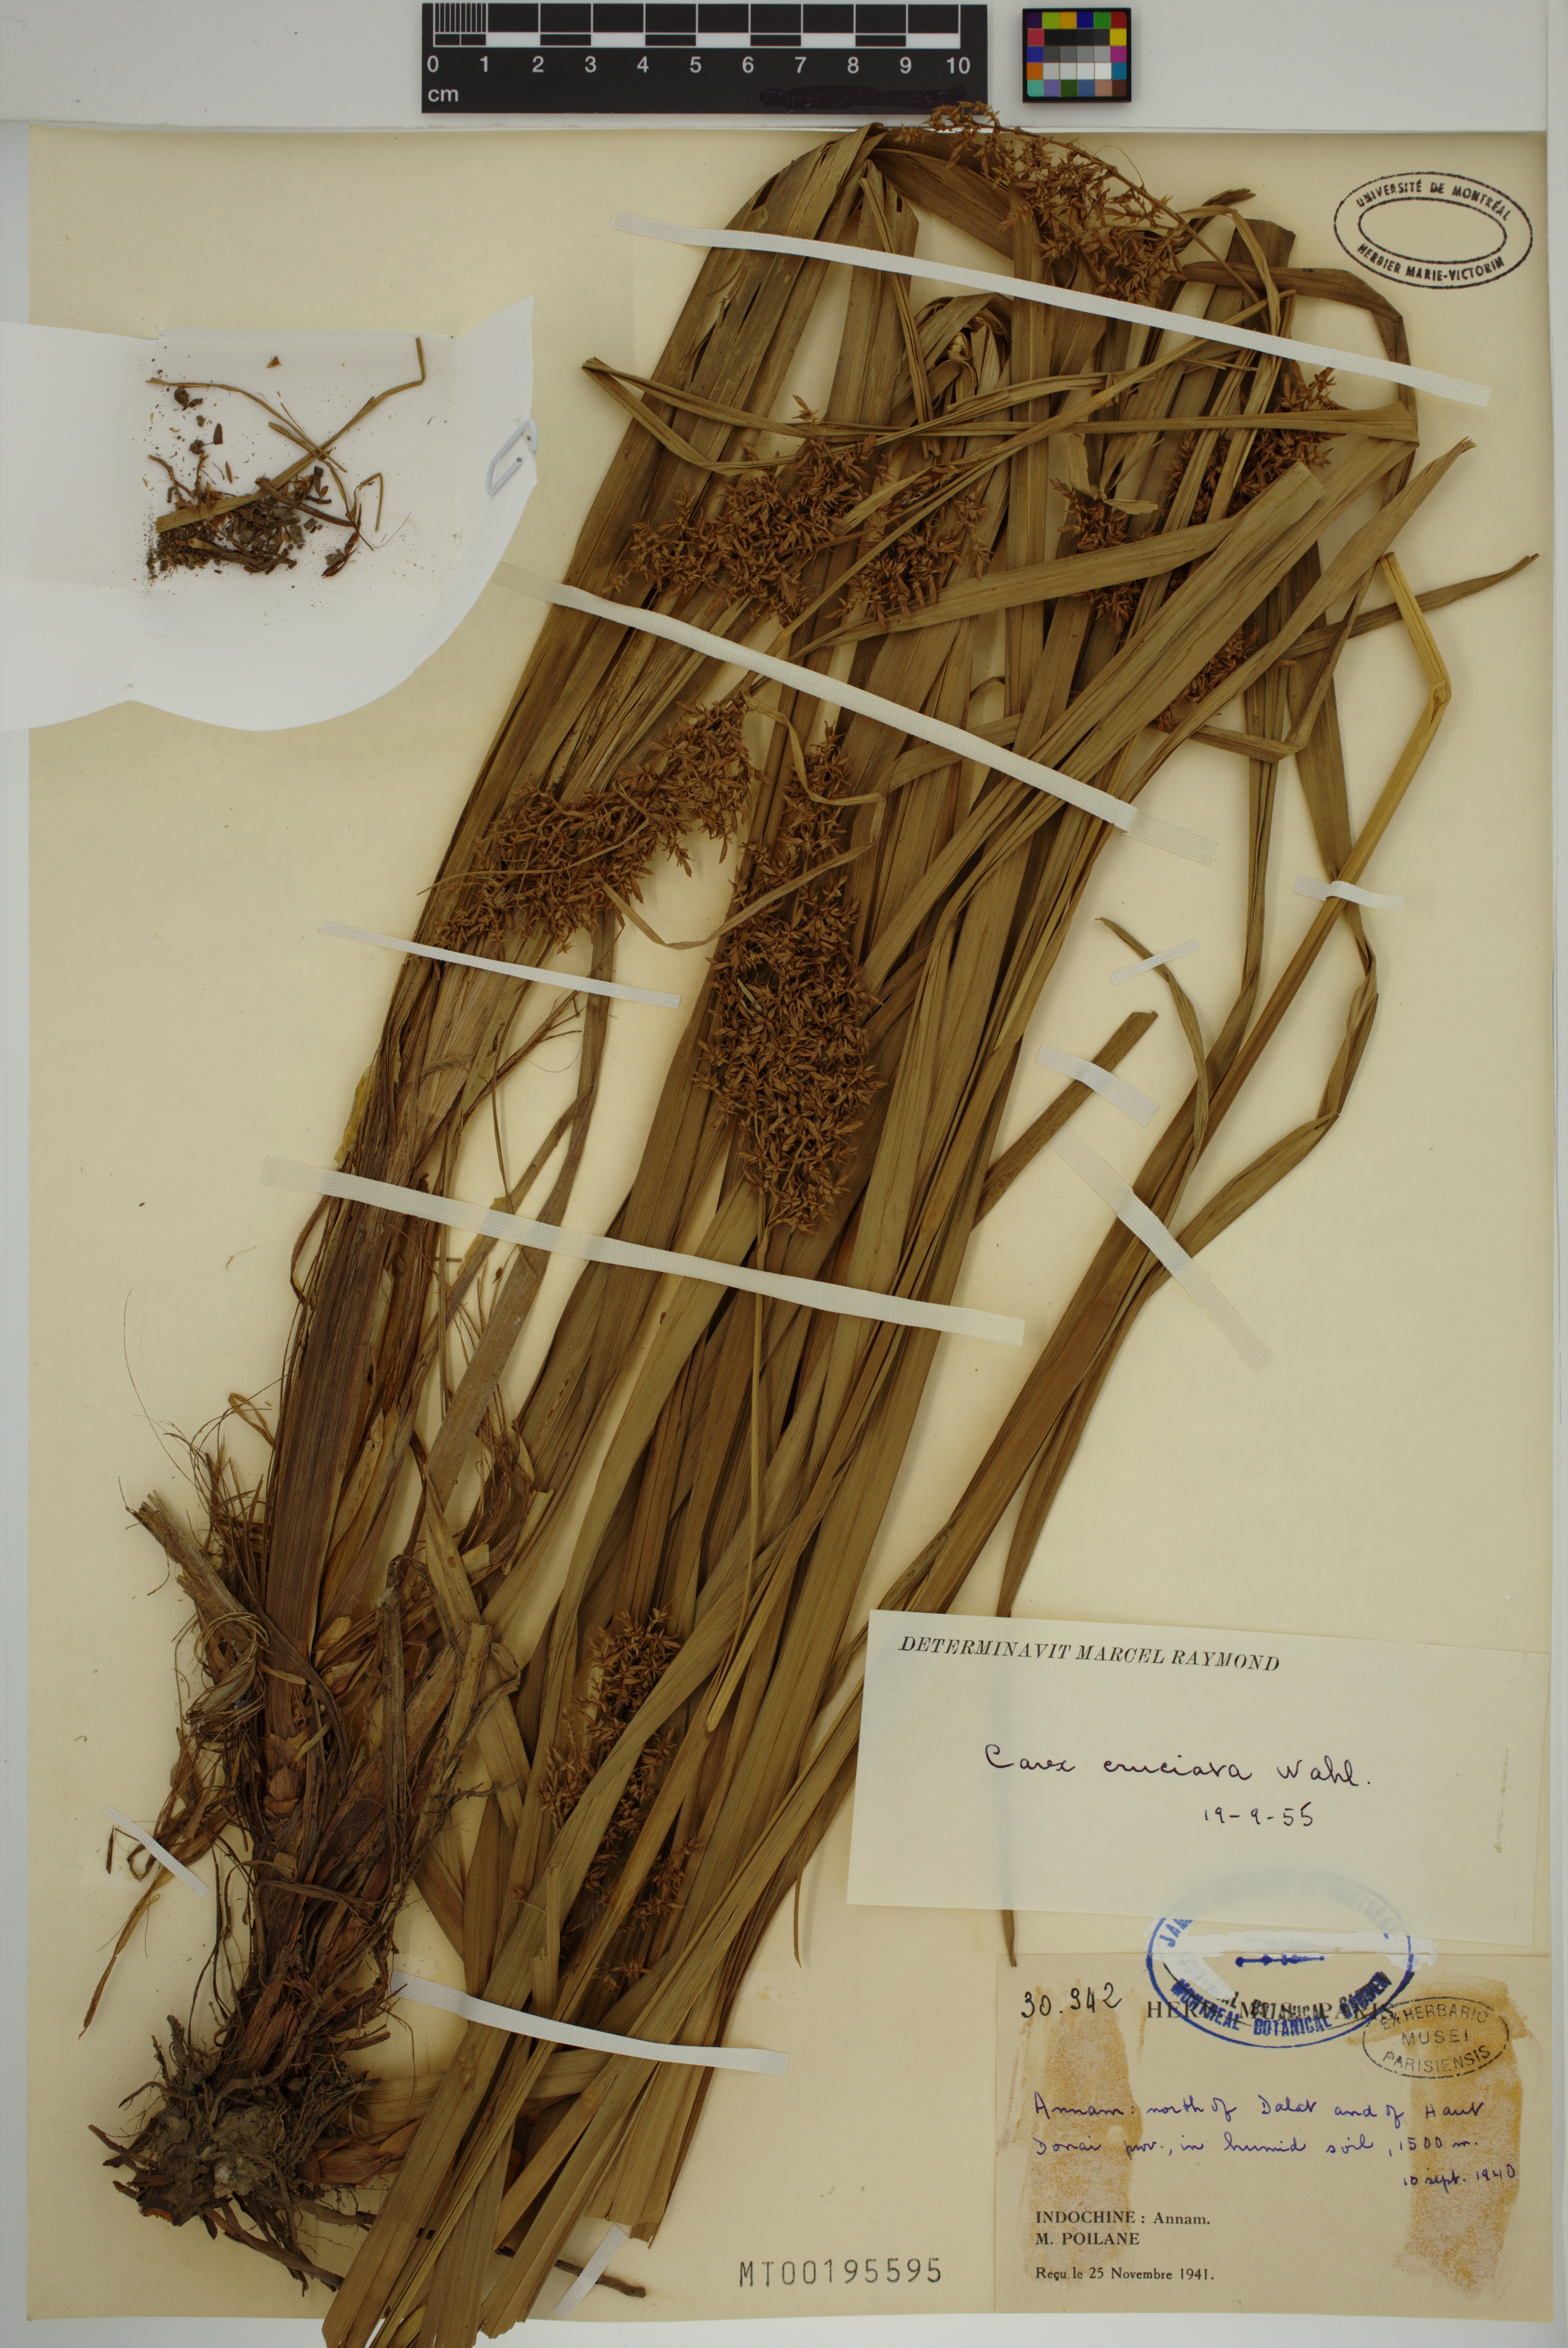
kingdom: Plantae
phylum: Tracheophyta
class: Liliopsida
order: Poales
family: Cyperaceae
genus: Carex
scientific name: Carex cruciata
